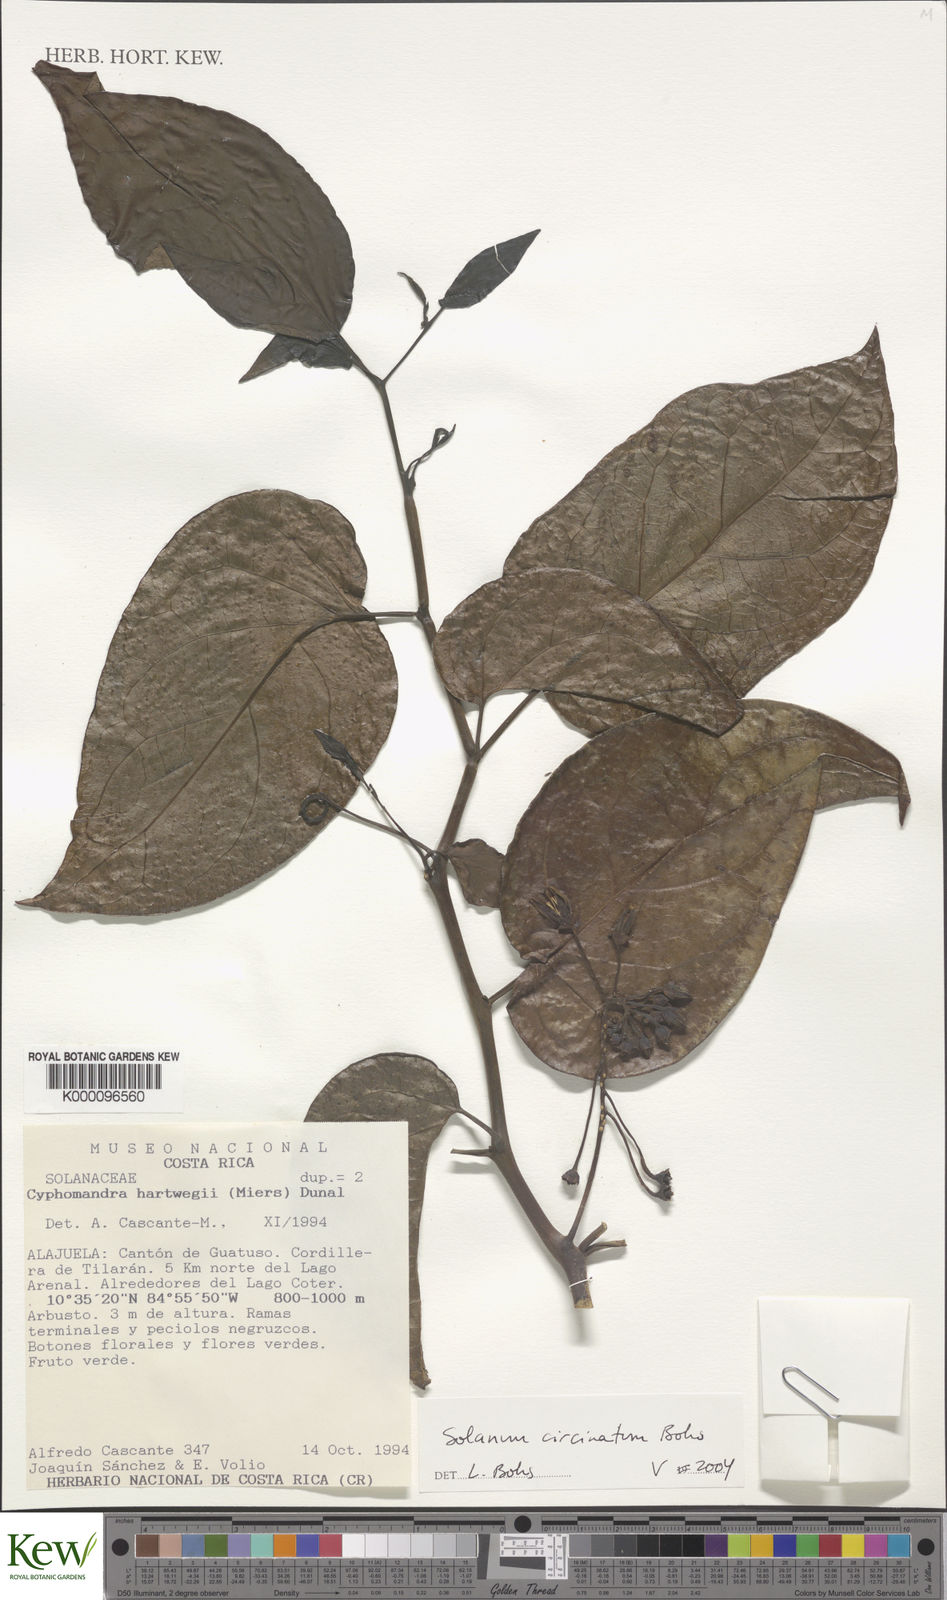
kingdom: Plantae
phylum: Tracheophyta
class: Magnoliopsida
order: Solanales
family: Solanaceae
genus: Solanum
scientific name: Solanum splendens
